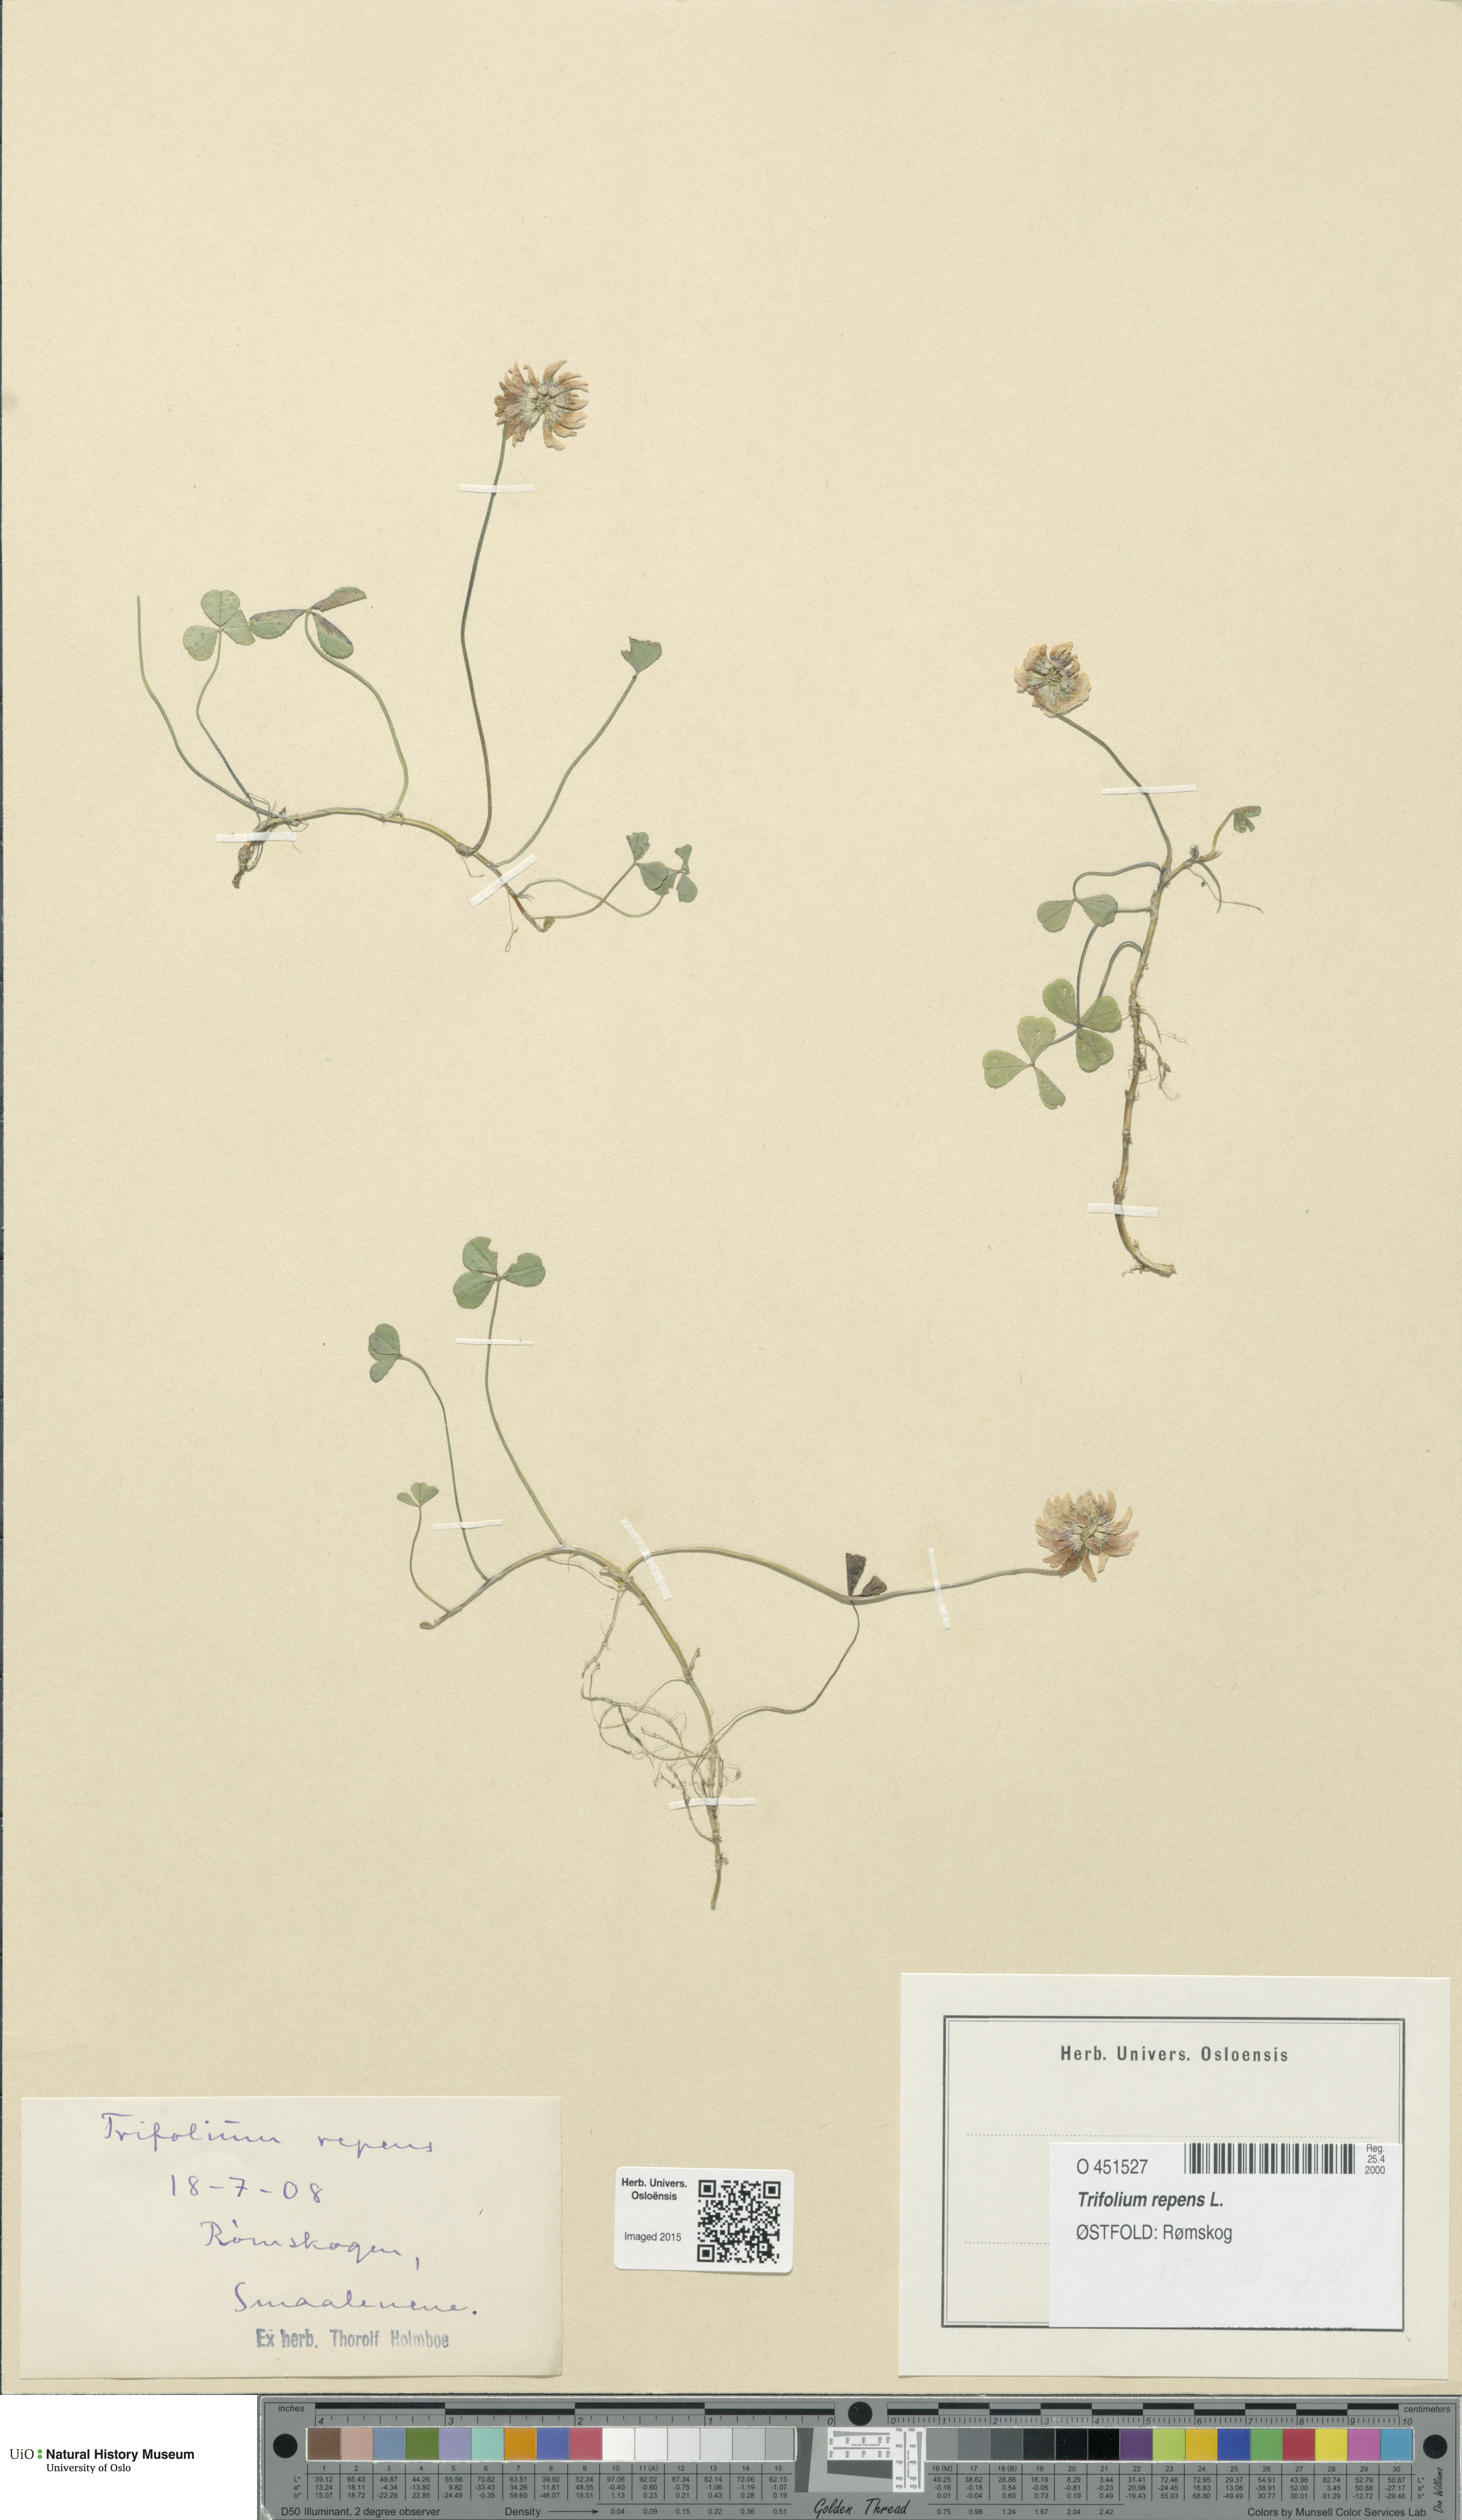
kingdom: Plantae
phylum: Tracheophyta
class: Magnoliopsida
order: Fabales
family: Fabaceae
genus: Trifolium
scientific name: Trifolium repens
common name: White clover
